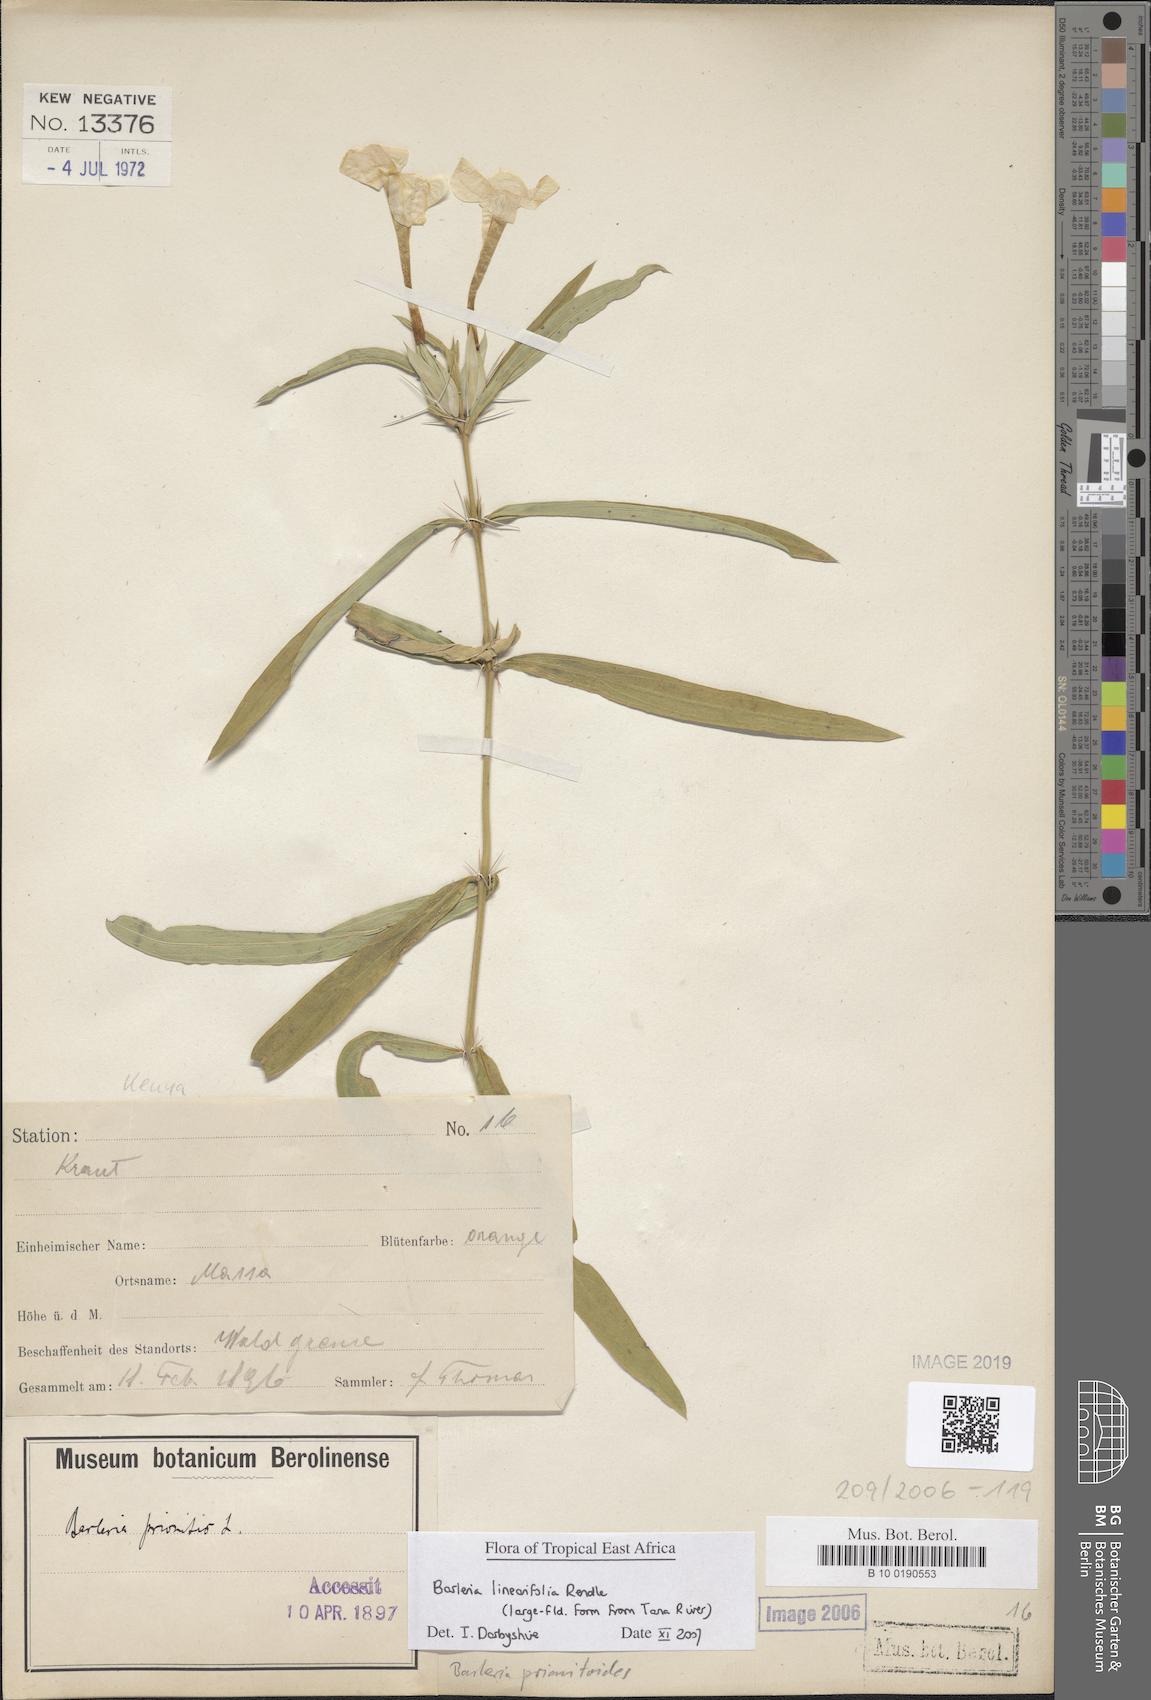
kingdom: Plantae
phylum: Tracheophyta
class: Magnoliopsida
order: Lamiales
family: Acanthaceae
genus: Barleria
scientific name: Barleria prionitis
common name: Barleria
